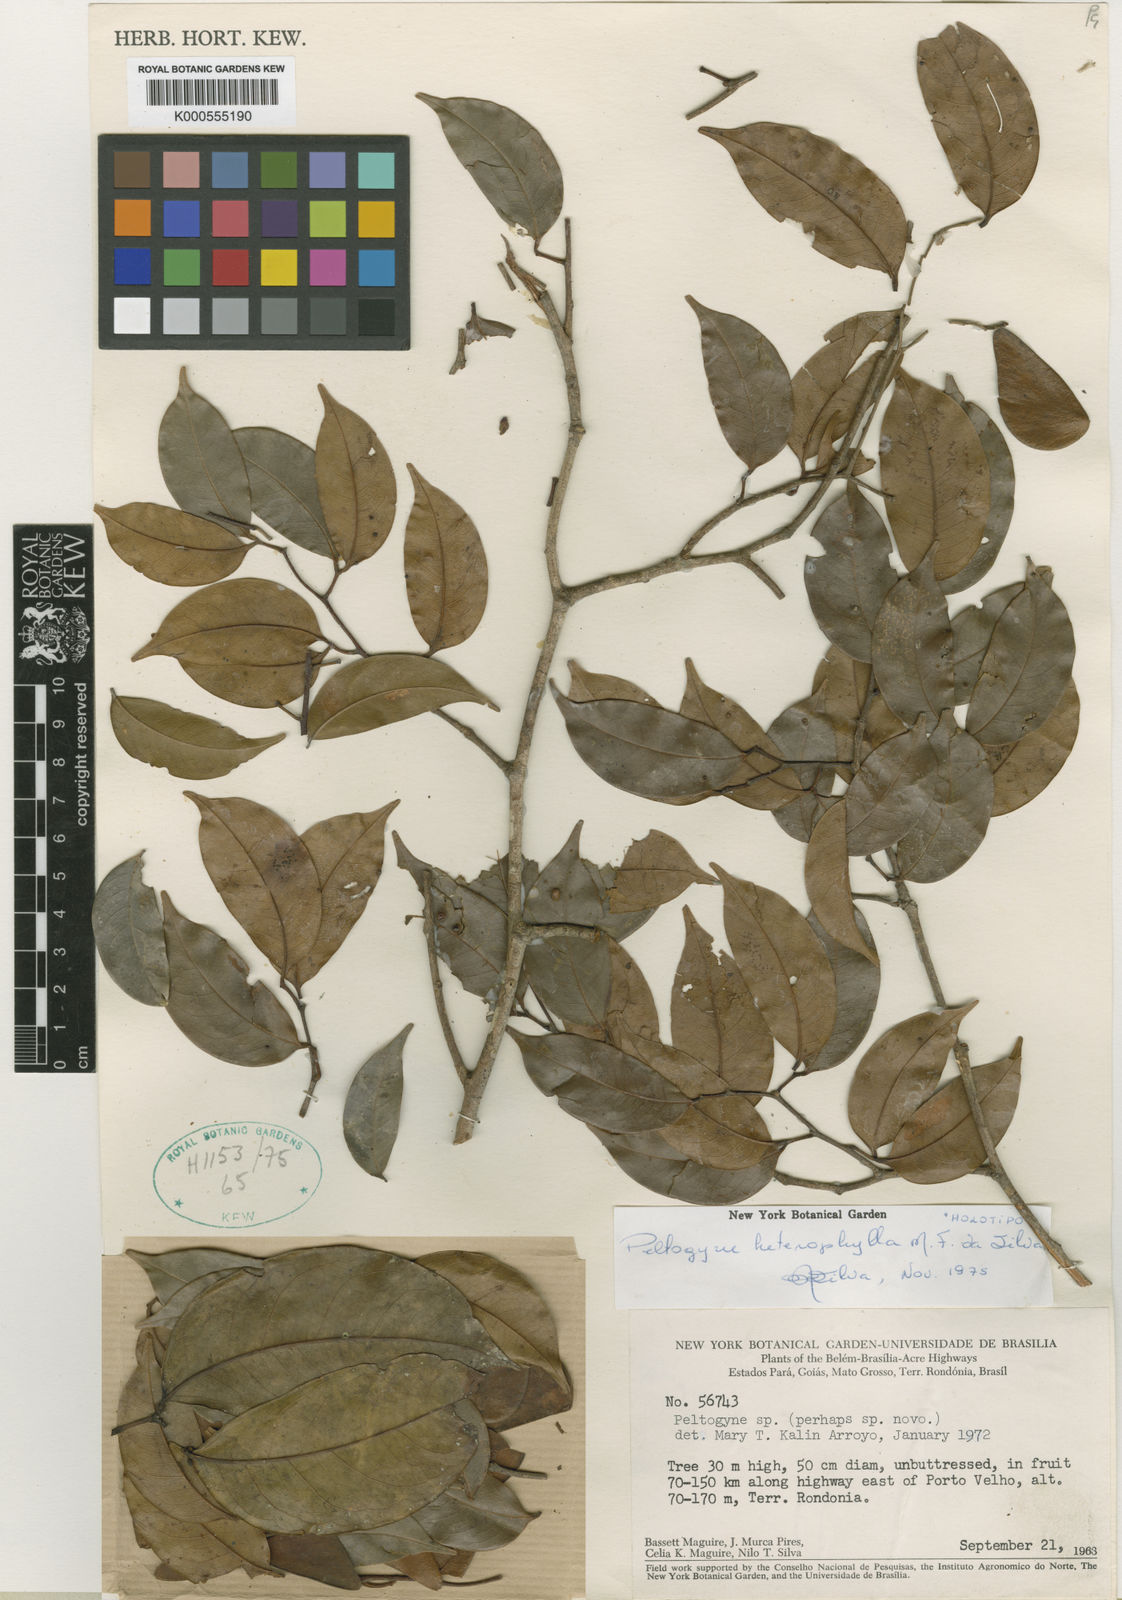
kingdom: Plantae
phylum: Tracheophyta
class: Magnoliopsida
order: Fabales
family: Fabaceae
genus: Peltogyne
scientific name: Peltogyne heterophylla
